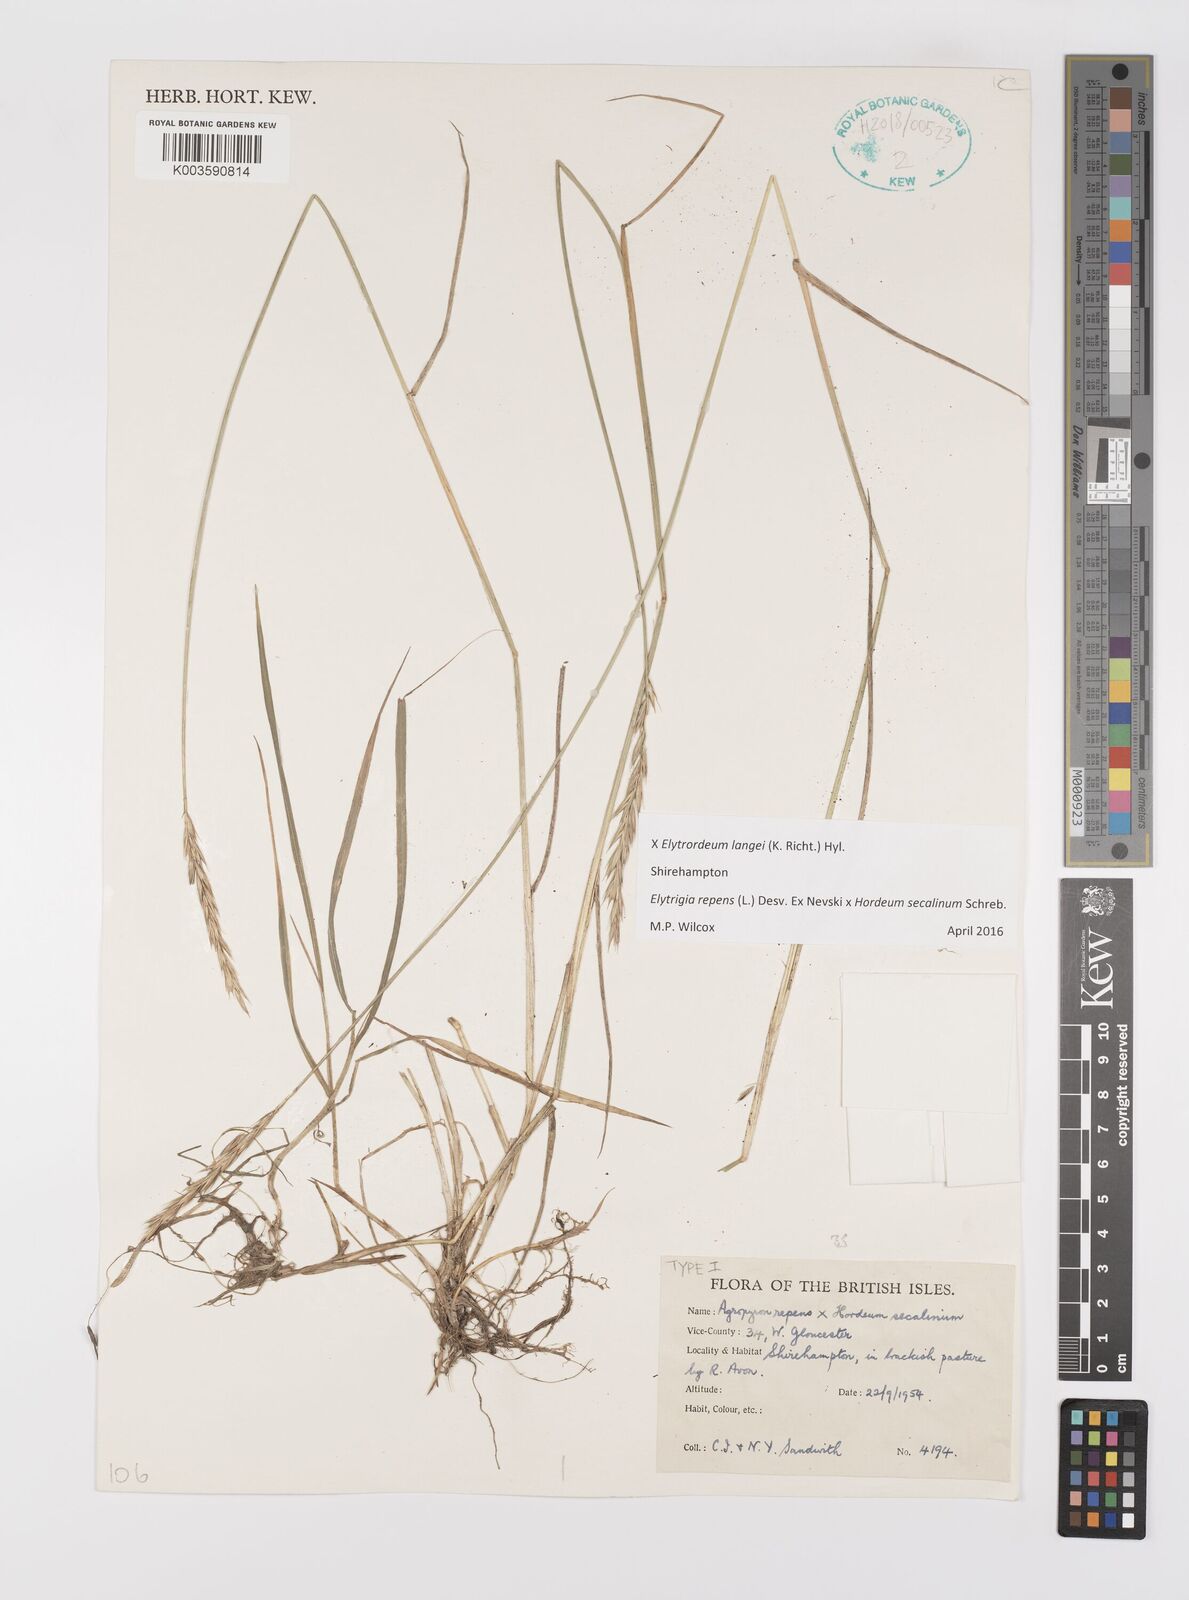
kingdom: Plantae
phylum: Tracheophyta
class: Liliopsida
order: Poales
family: Poaceae
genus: Elyhordeum
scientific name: Elyhordeum langei
